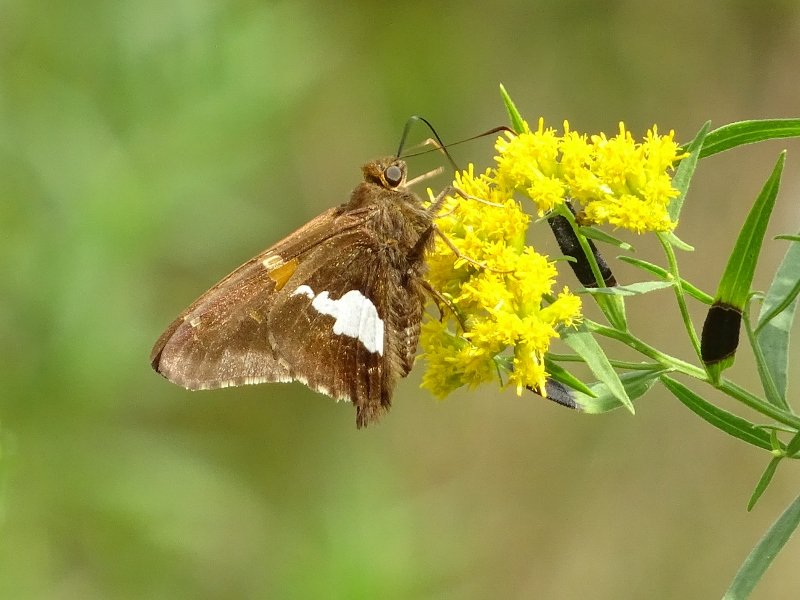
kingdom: Animalia
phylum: Arthropoda
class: Insecta
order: Lepidoptera
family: Hesperiidae
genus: Epargyreus
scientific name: Epargyreus clarus
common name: Silver-spotted Skipper
